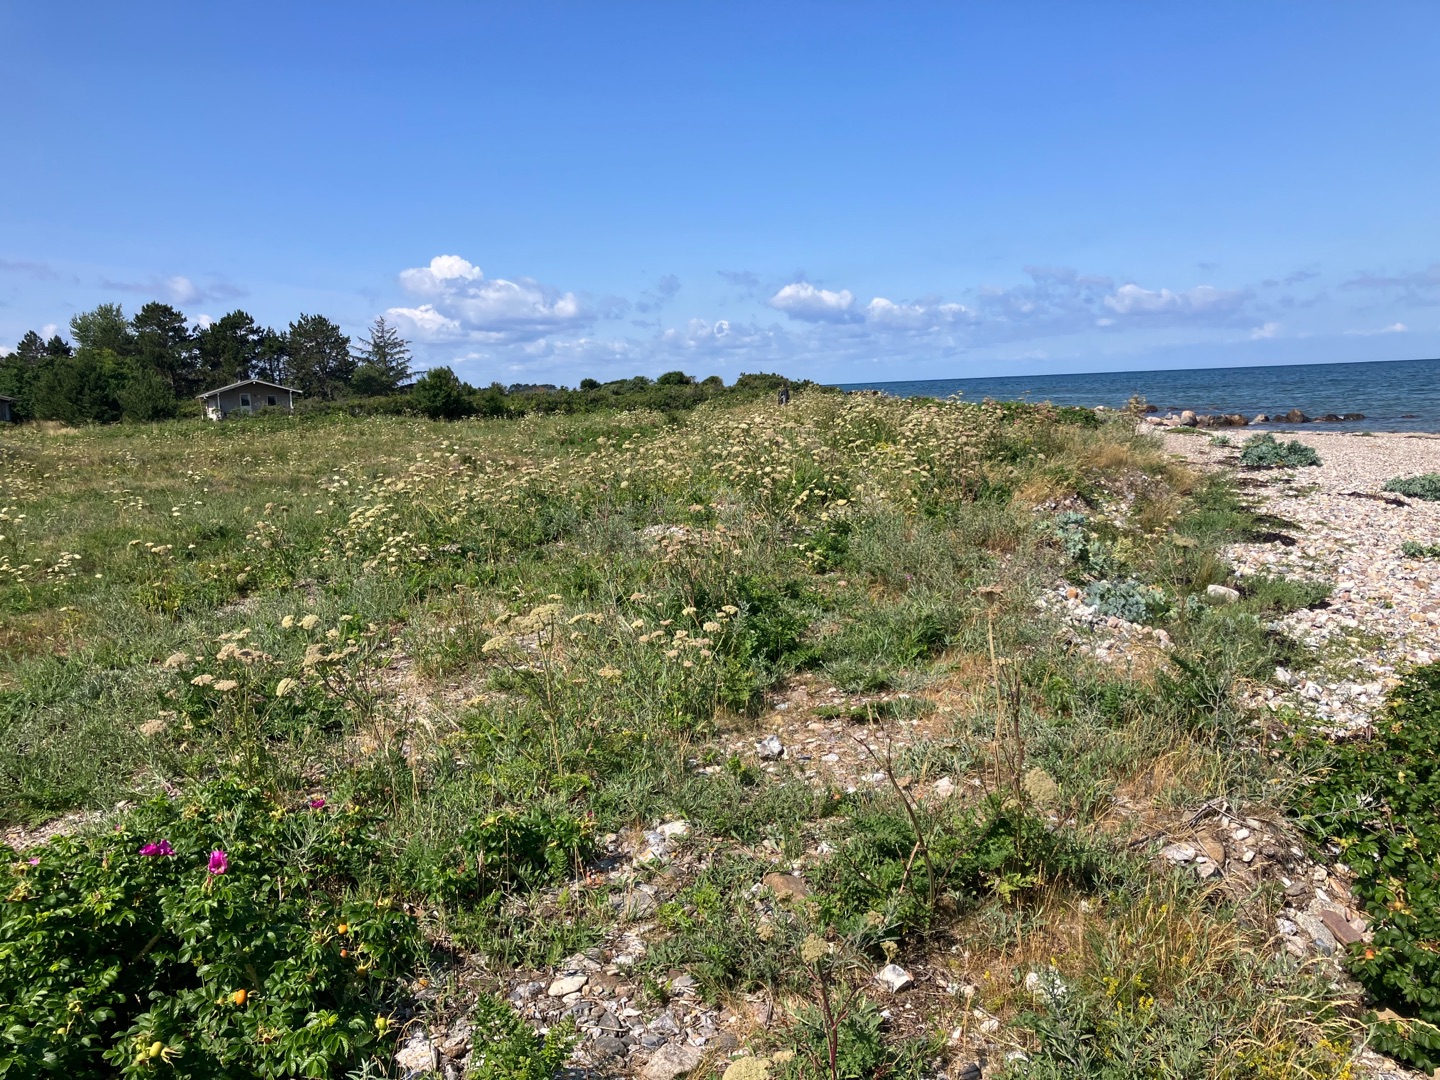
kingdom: Plantae
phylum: Tracheophyta
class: Magnoliopsida
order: Apiales
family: Apiaceae
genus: Seseli
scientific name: Seseli libanotis
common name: Hjorterod
